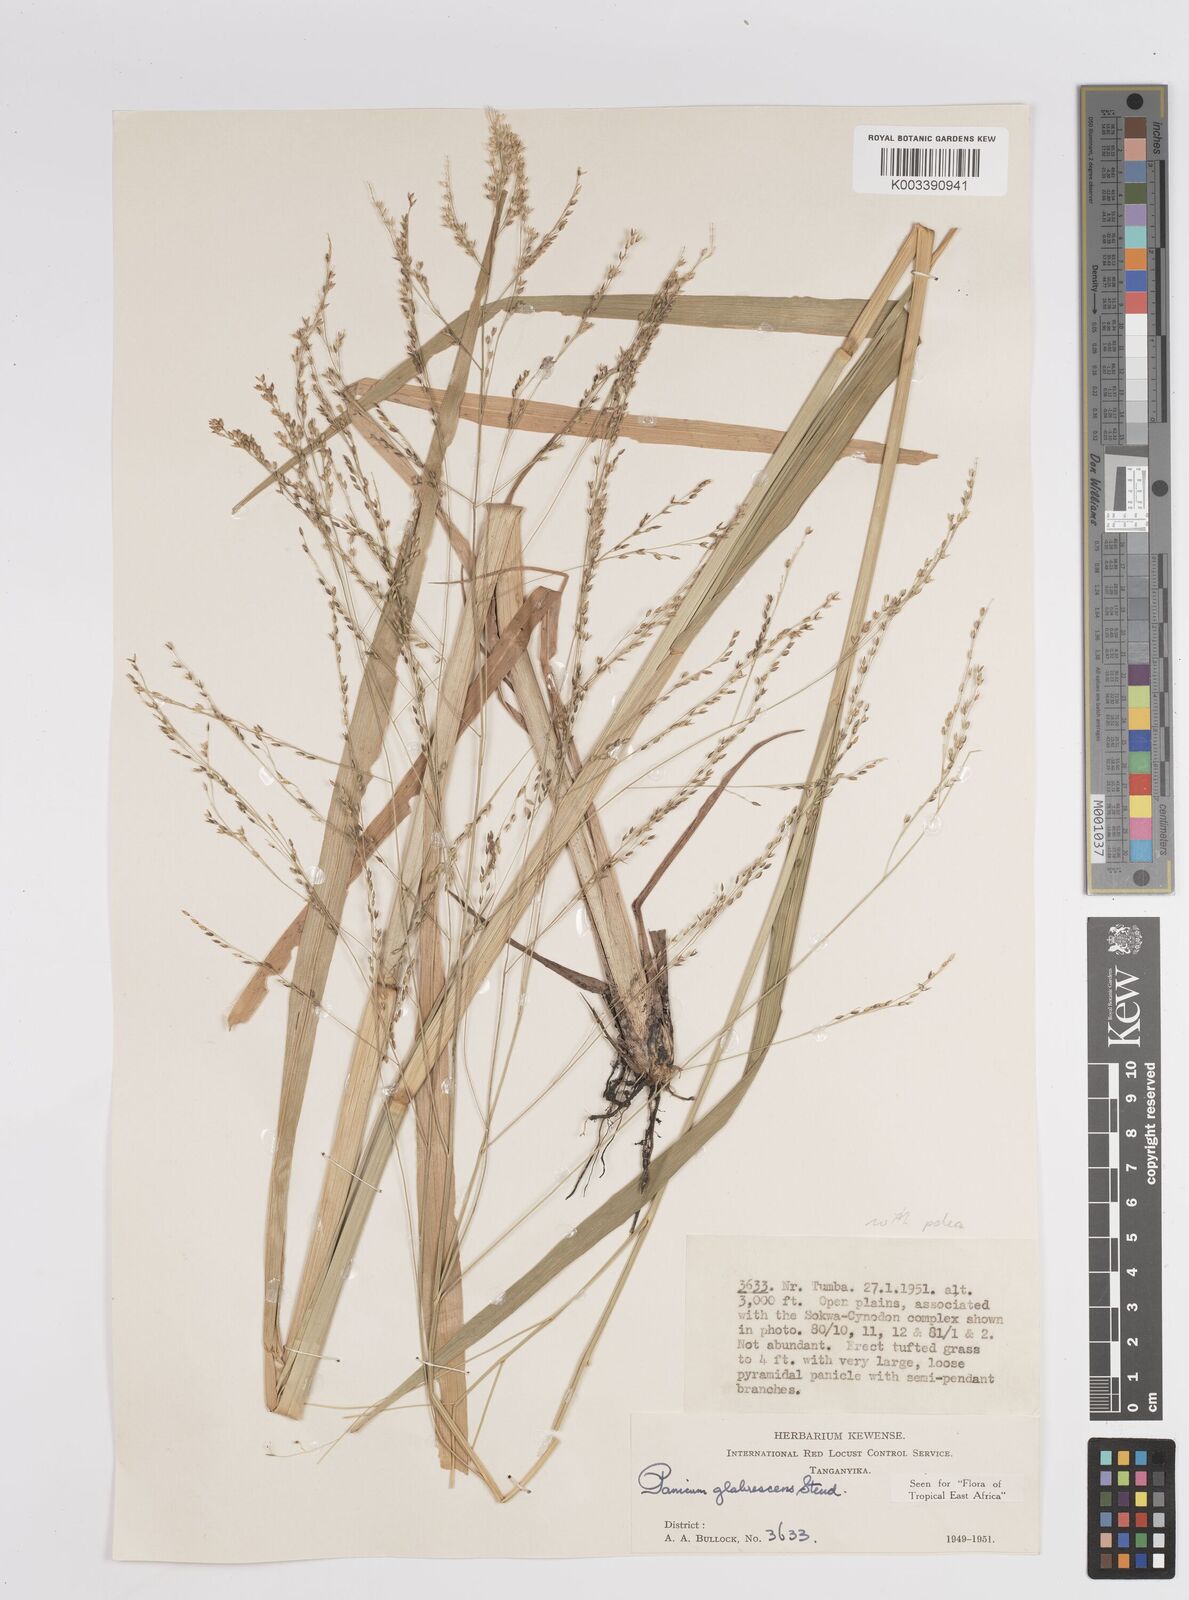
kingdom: Plantae
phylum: Tracheophyta
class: Liliopsida
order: Poales
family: Poaceae
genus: Panicum
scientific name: Panicum subalbidum
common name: Elbow buffalo grass
